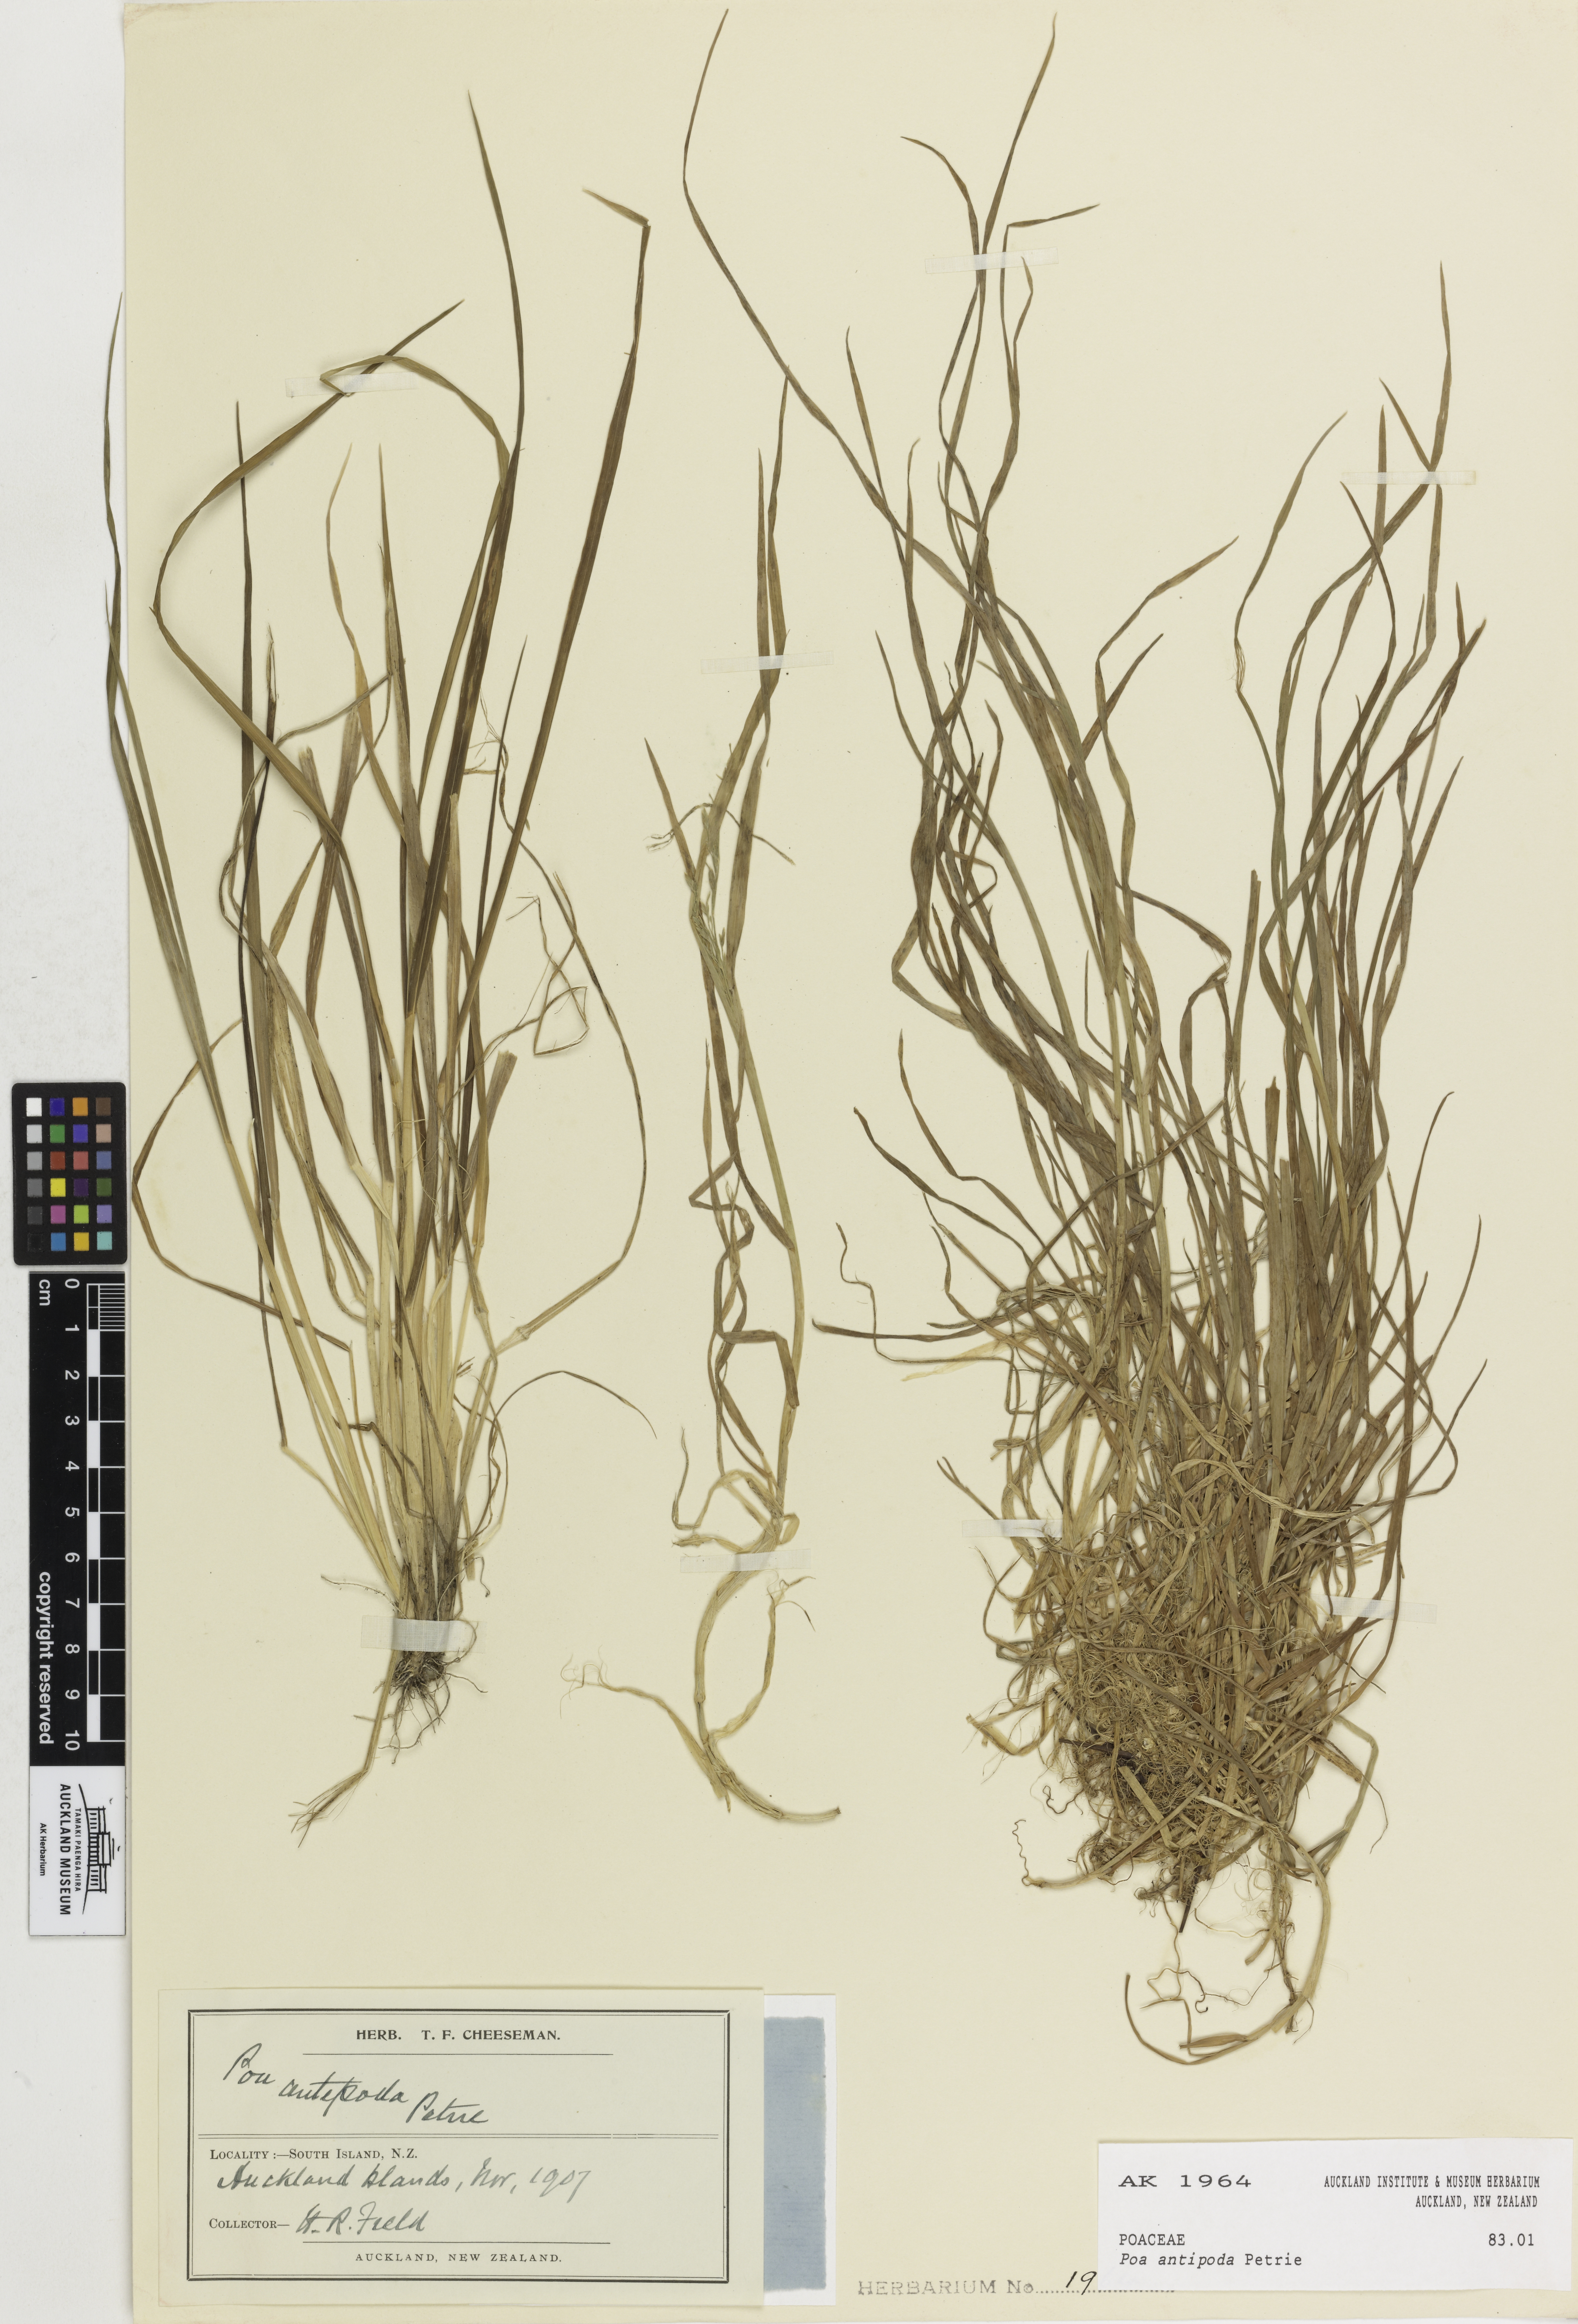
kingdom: Plantae
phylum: Tracheophyta
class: Liliopsida
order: Poales
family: Poaceae
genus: Poa
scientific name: Poa antipoda
